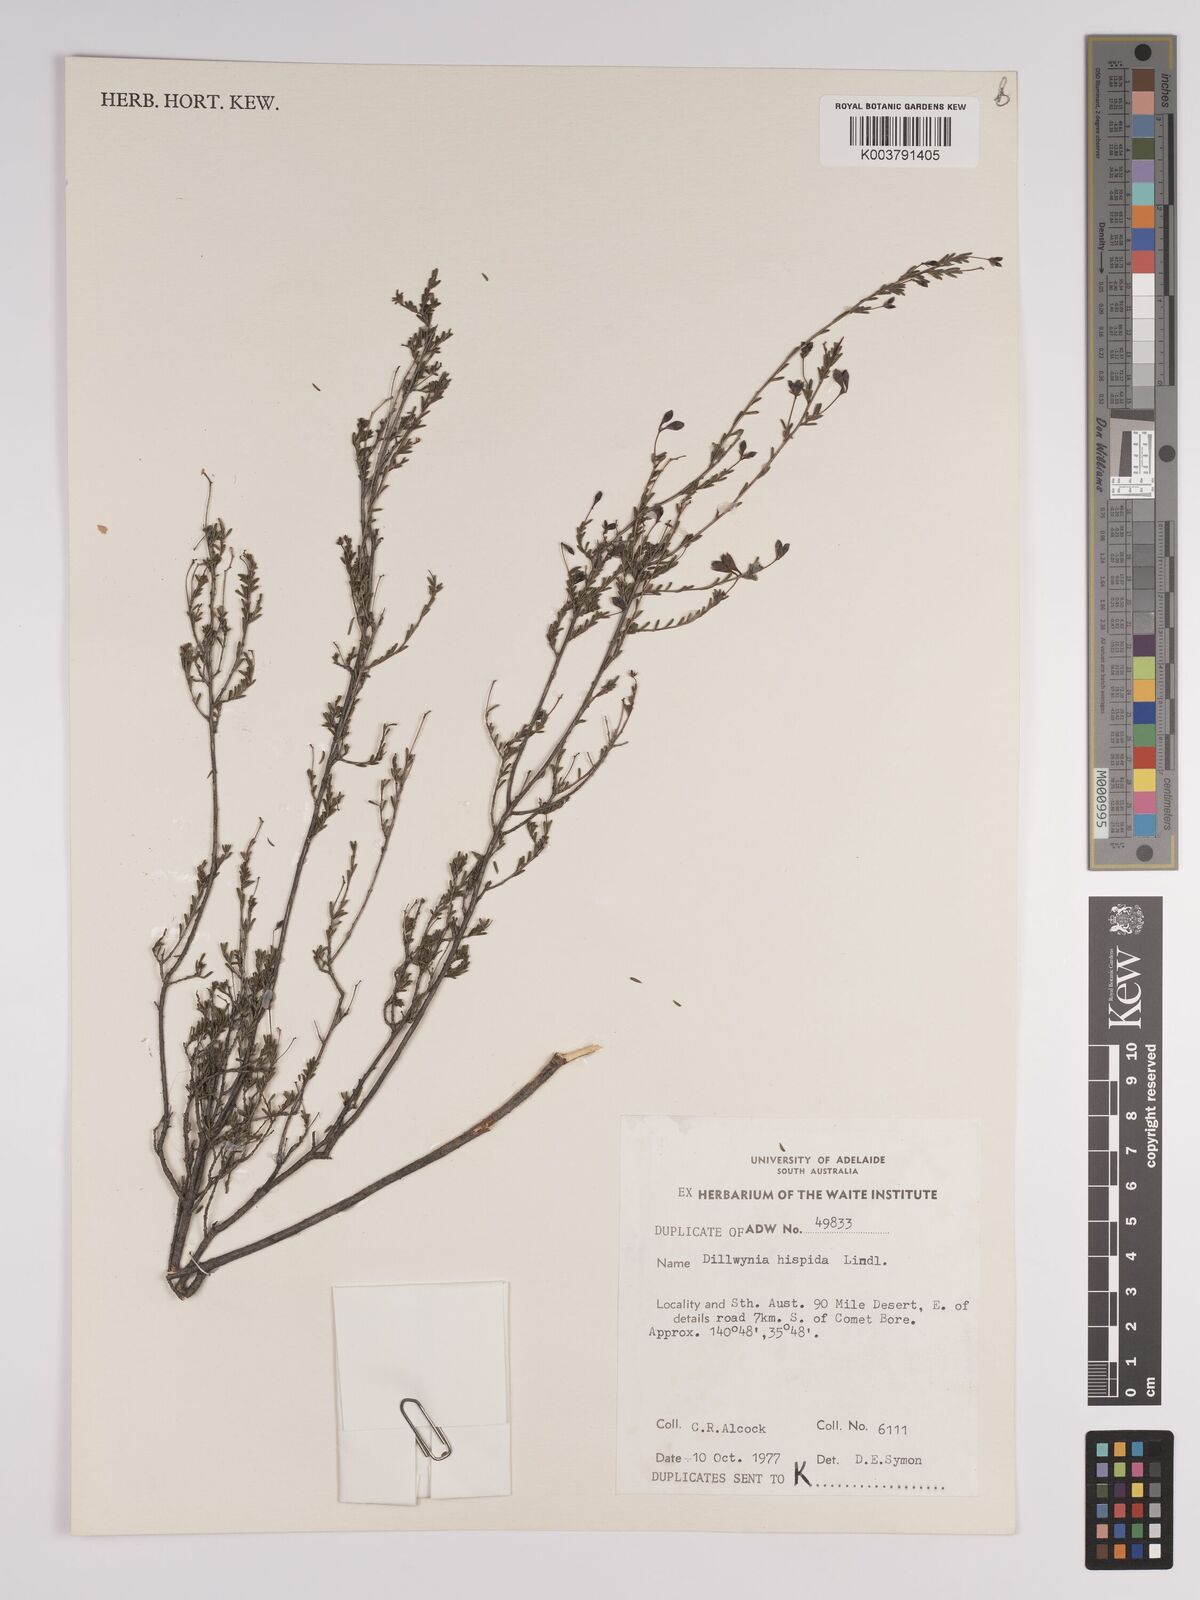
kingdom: Plantae
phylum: Tracheophyta
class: Magnoliopsida
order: Fabales
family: Fabaceae
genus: Dillwynia
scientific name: Dillwynia hispida
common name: Red parrot-pea
